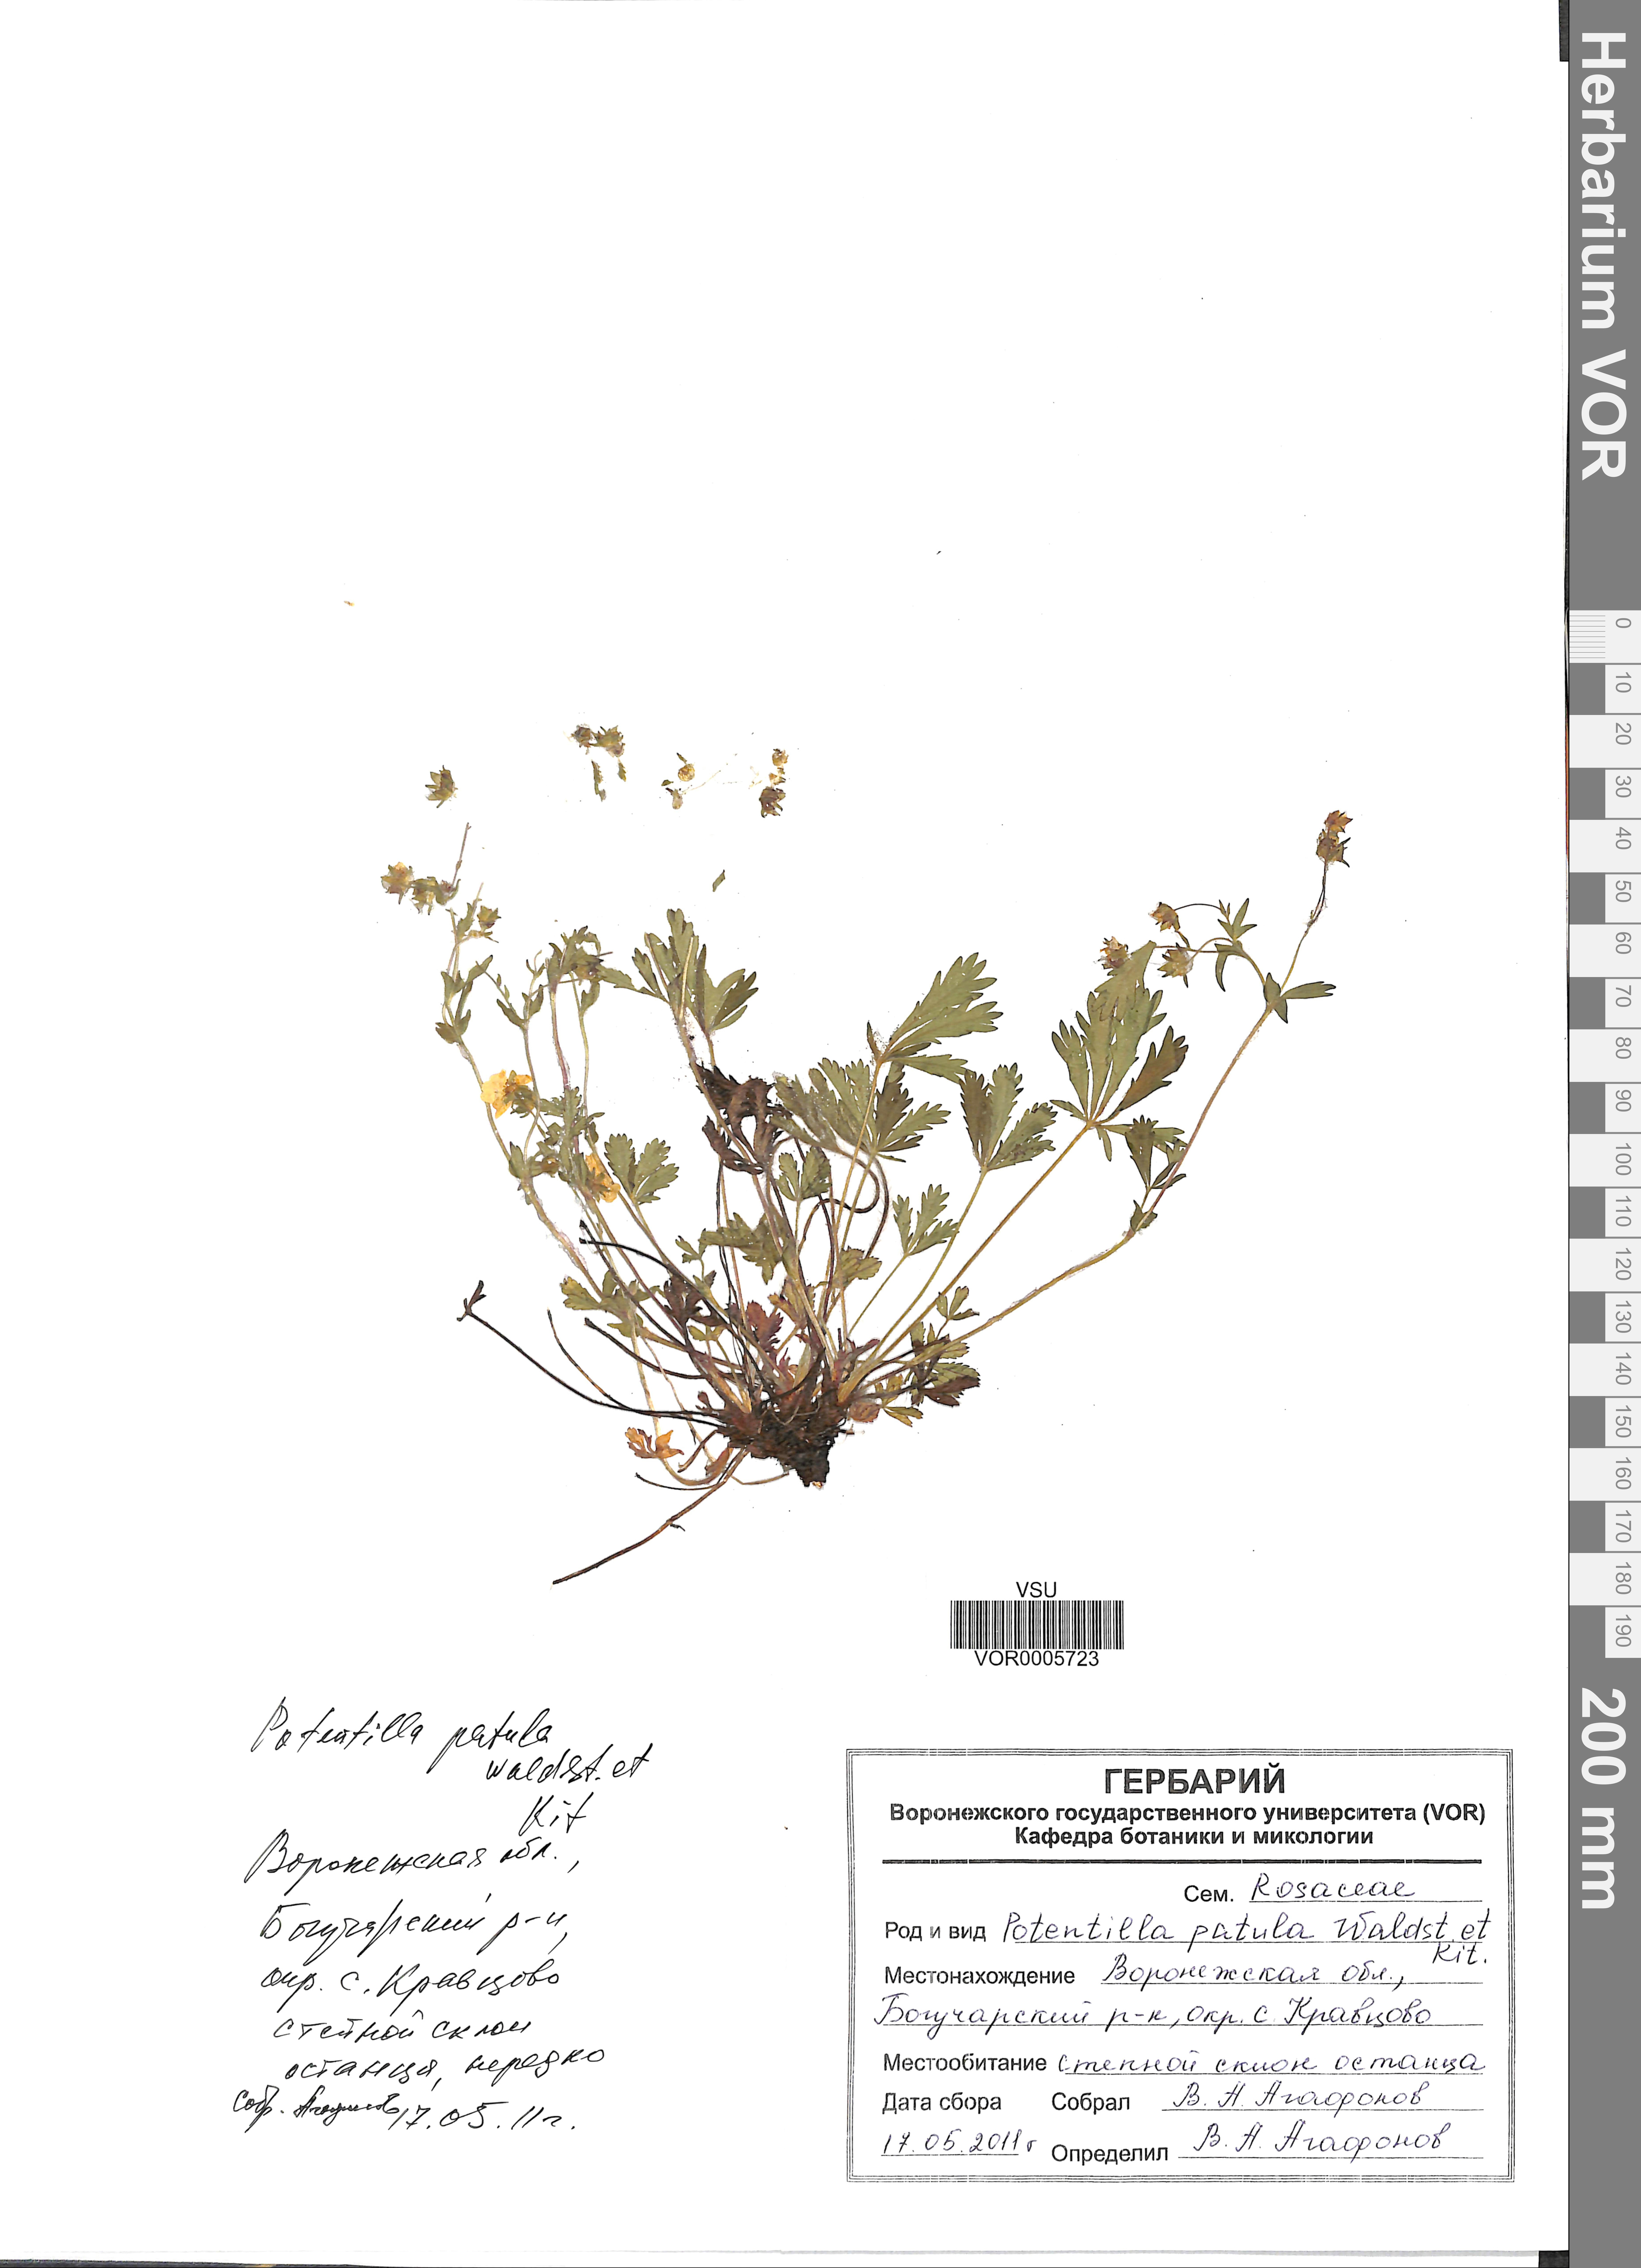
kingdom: Plantae
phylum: Tracheophyta
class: Magnoliopsida
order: Rosales
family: Rosaceae
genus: Potentilla
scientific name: Potentilla patula
